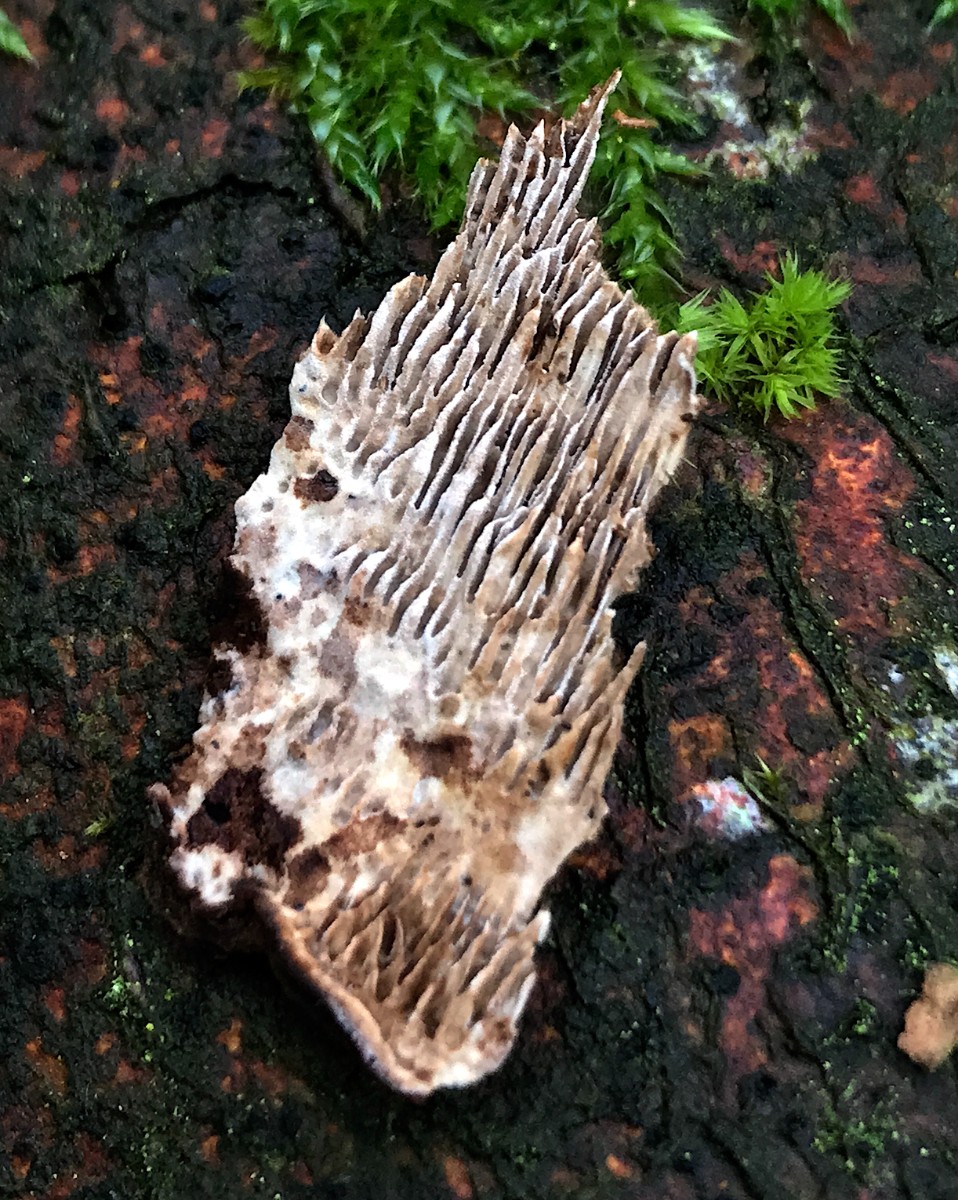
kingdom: Fungi
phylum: Basidiomycota
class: Agaricomycetes
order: Polyporales
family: Polyporaceae
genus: Podofomes
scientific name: Podofomes mollis
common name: blød begporesvamp
